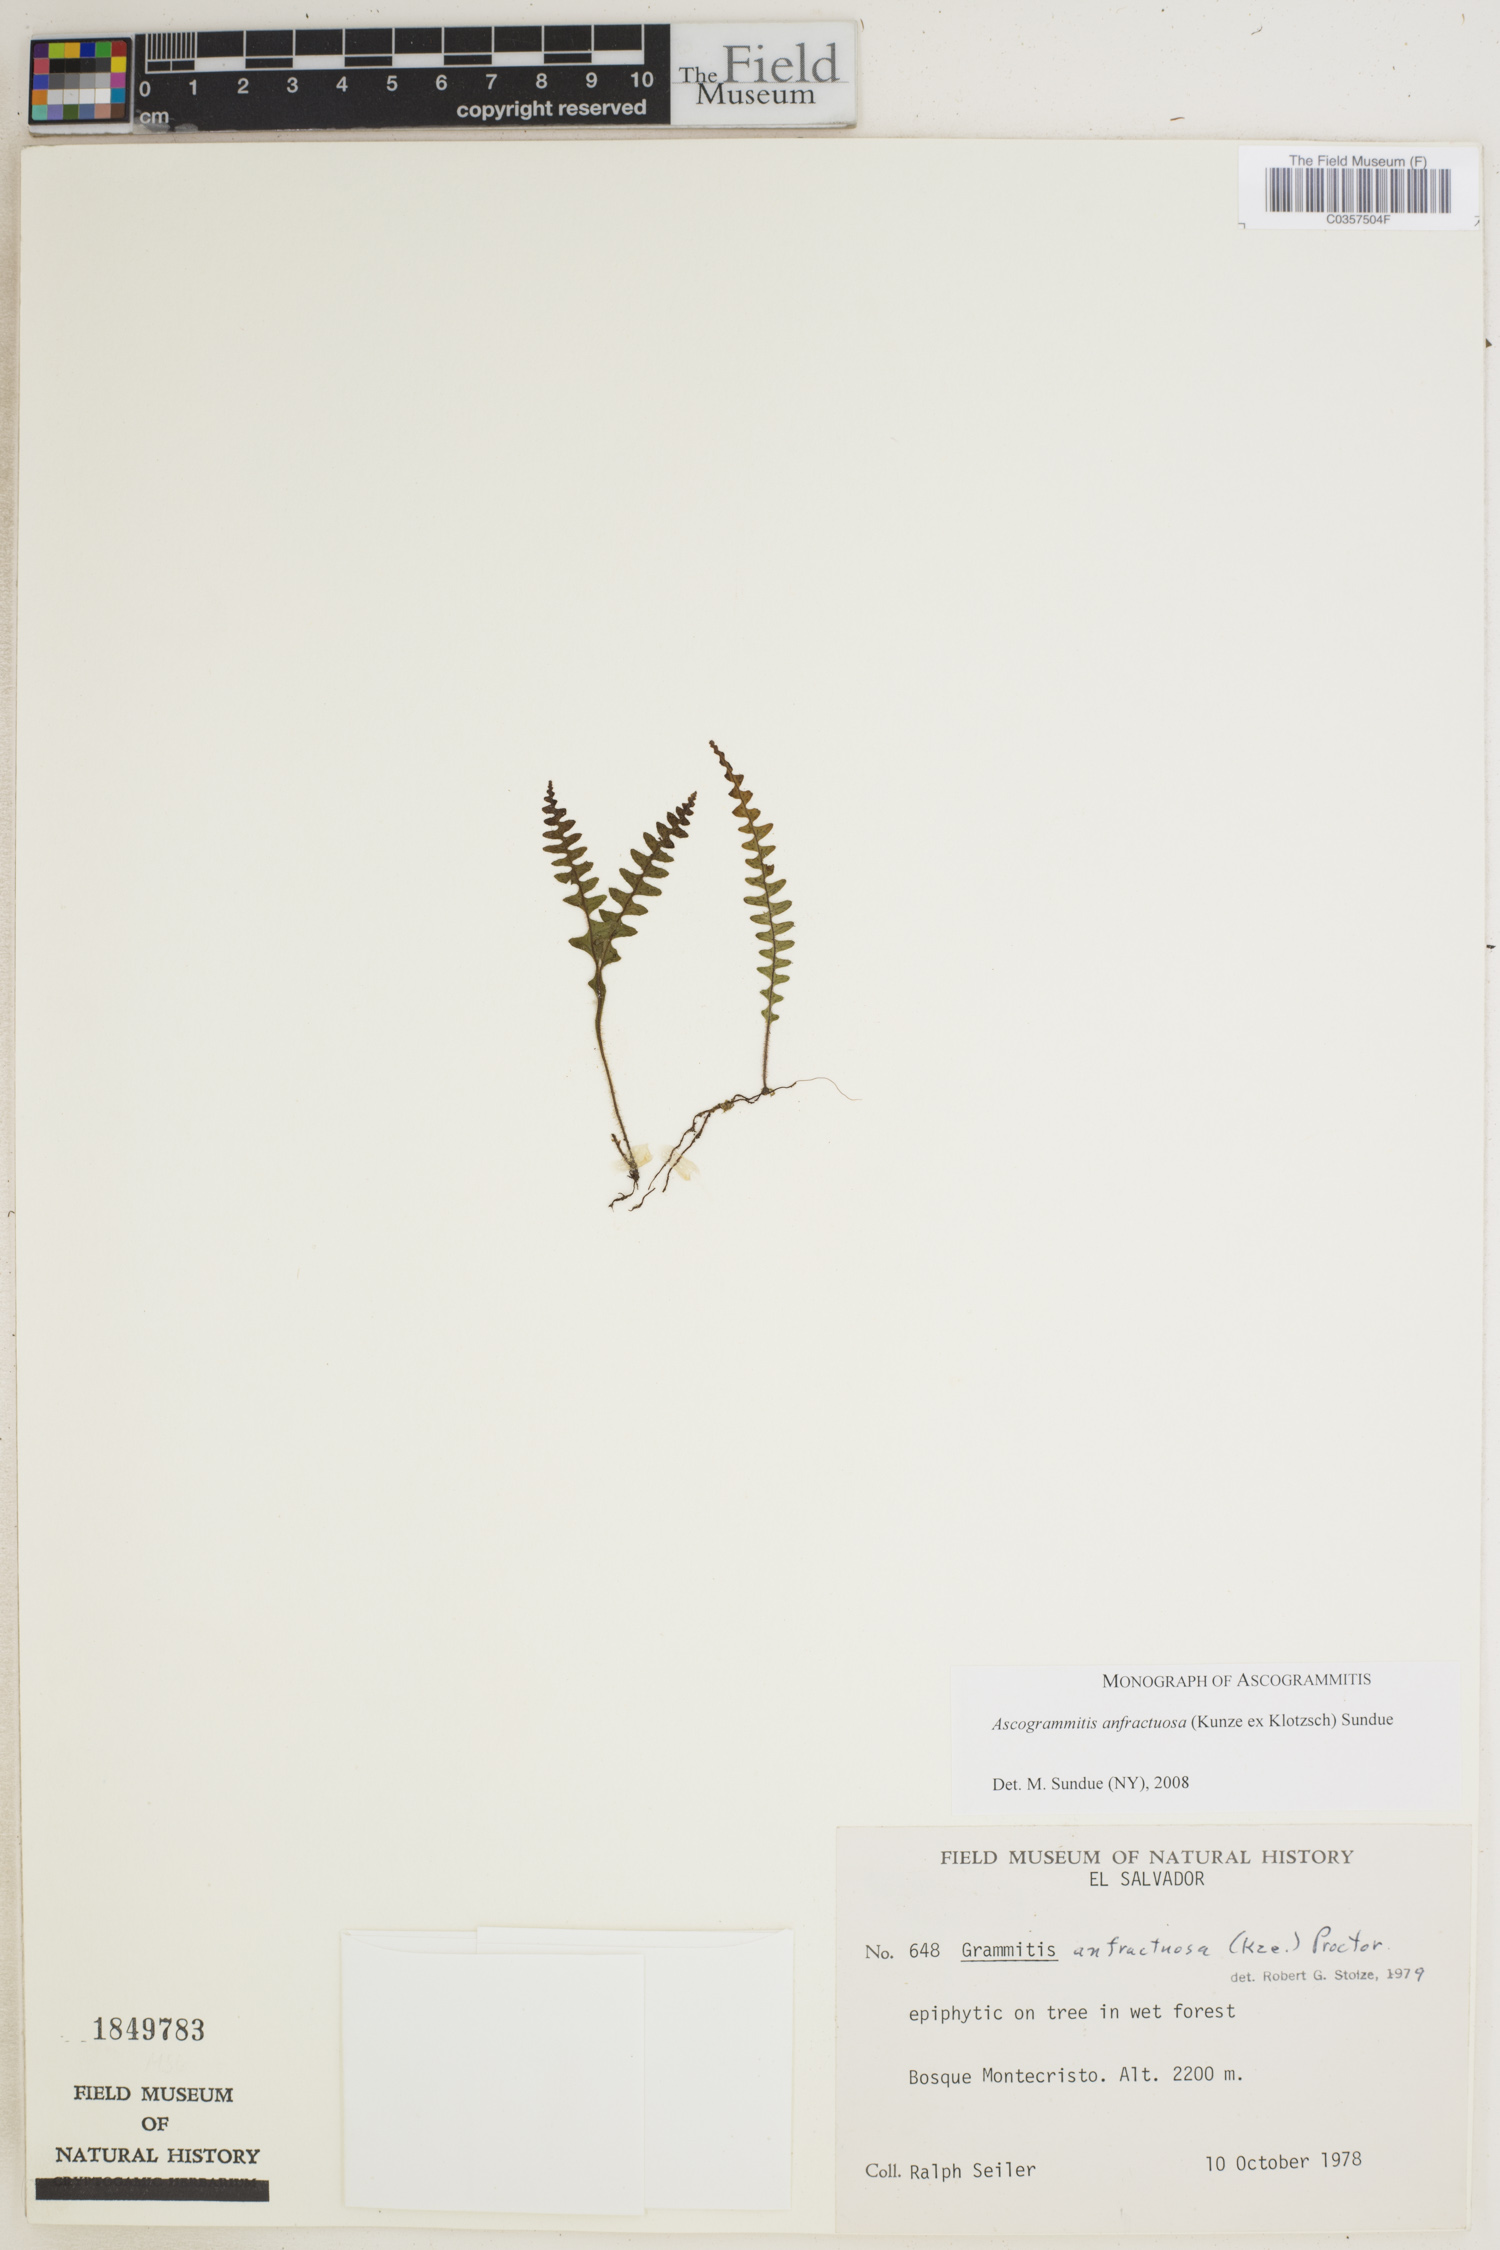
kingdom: Plantae
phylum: Tracheophyta
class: Polypodiopsida
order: Polypodiales
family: Polypodiaceae
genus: Ascogrammitis
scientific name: Ascogrammitis anfractuosa
